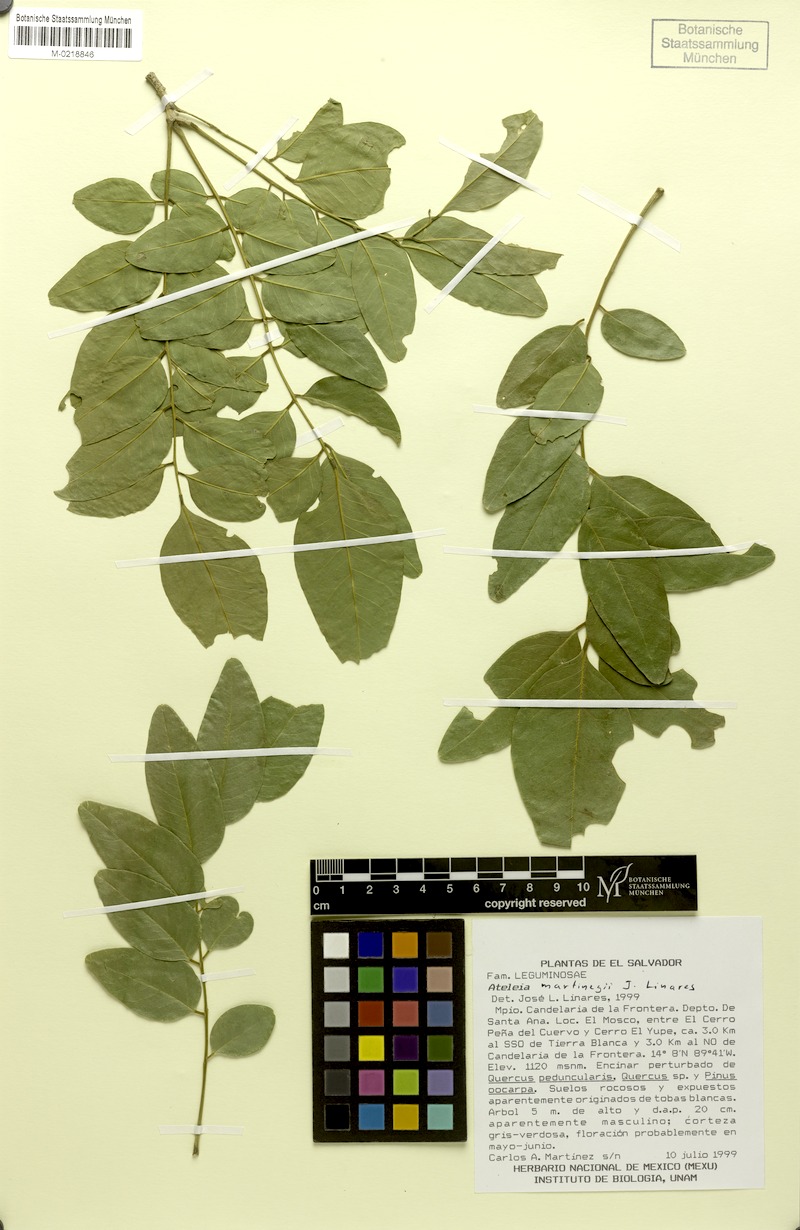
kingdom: Plantae
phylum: Tracheophyta
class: Magnoliopsida
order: Fabales
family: Fabaceae
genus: Ateleia
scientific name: Ateleia martinezii
